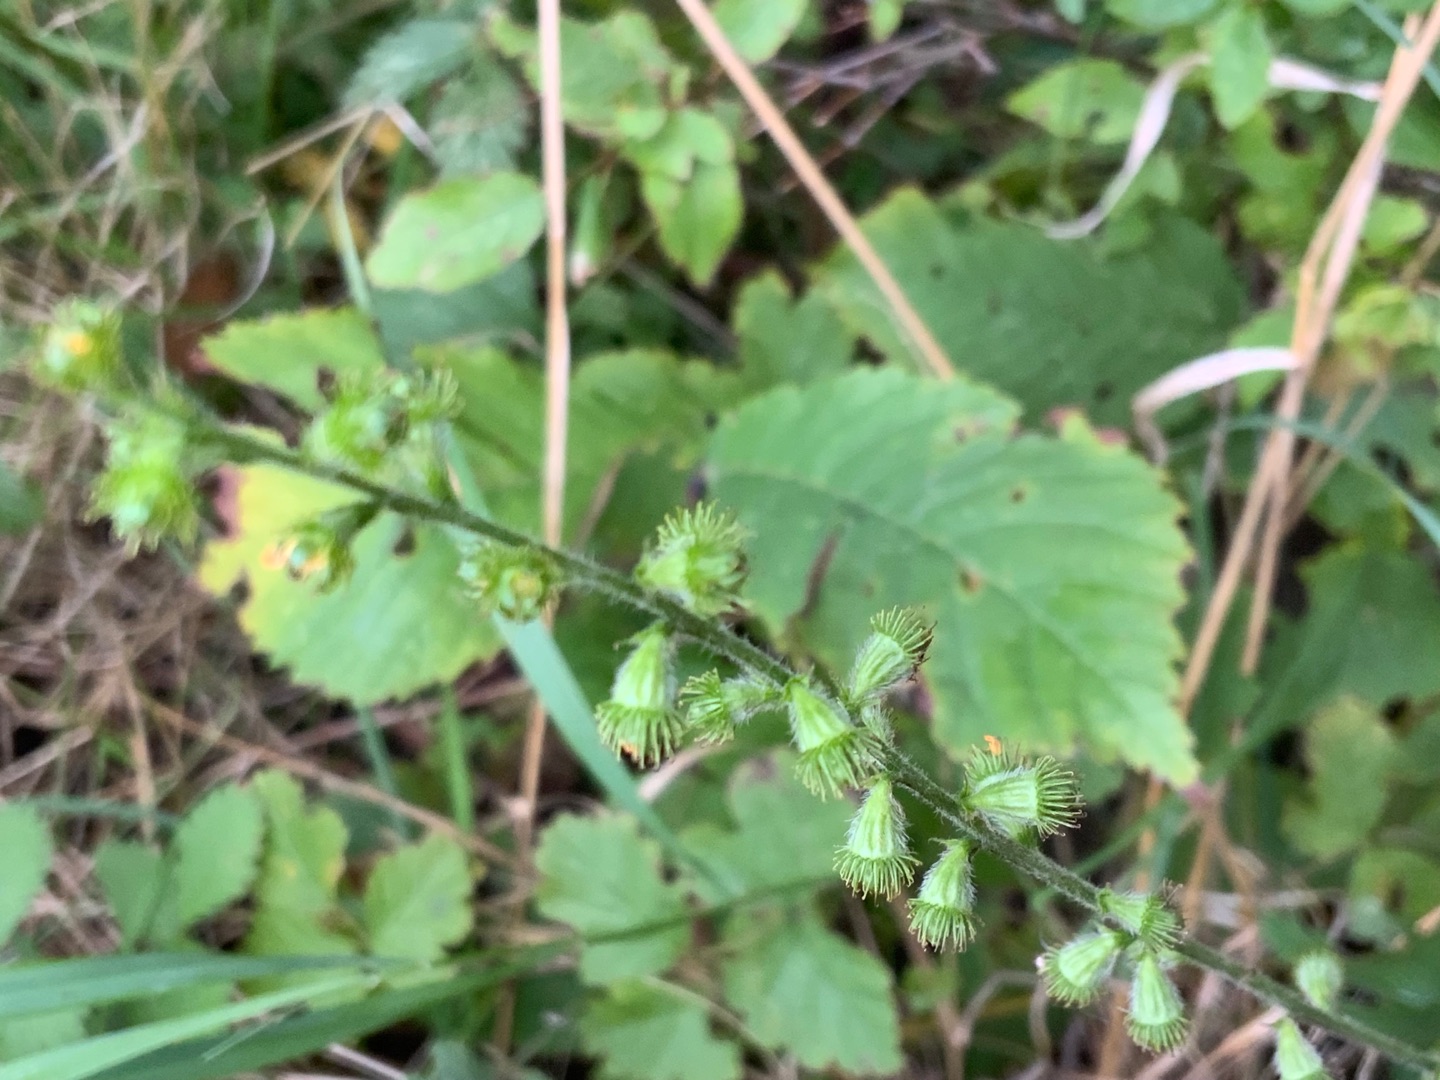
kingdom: Plantae
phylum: Tracheophyta
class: Magnoliopsida
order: Rosales
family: Rosaceae
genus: Agrimonia
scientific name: Agrimonia eupatoria
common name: Almindelig agermåne
